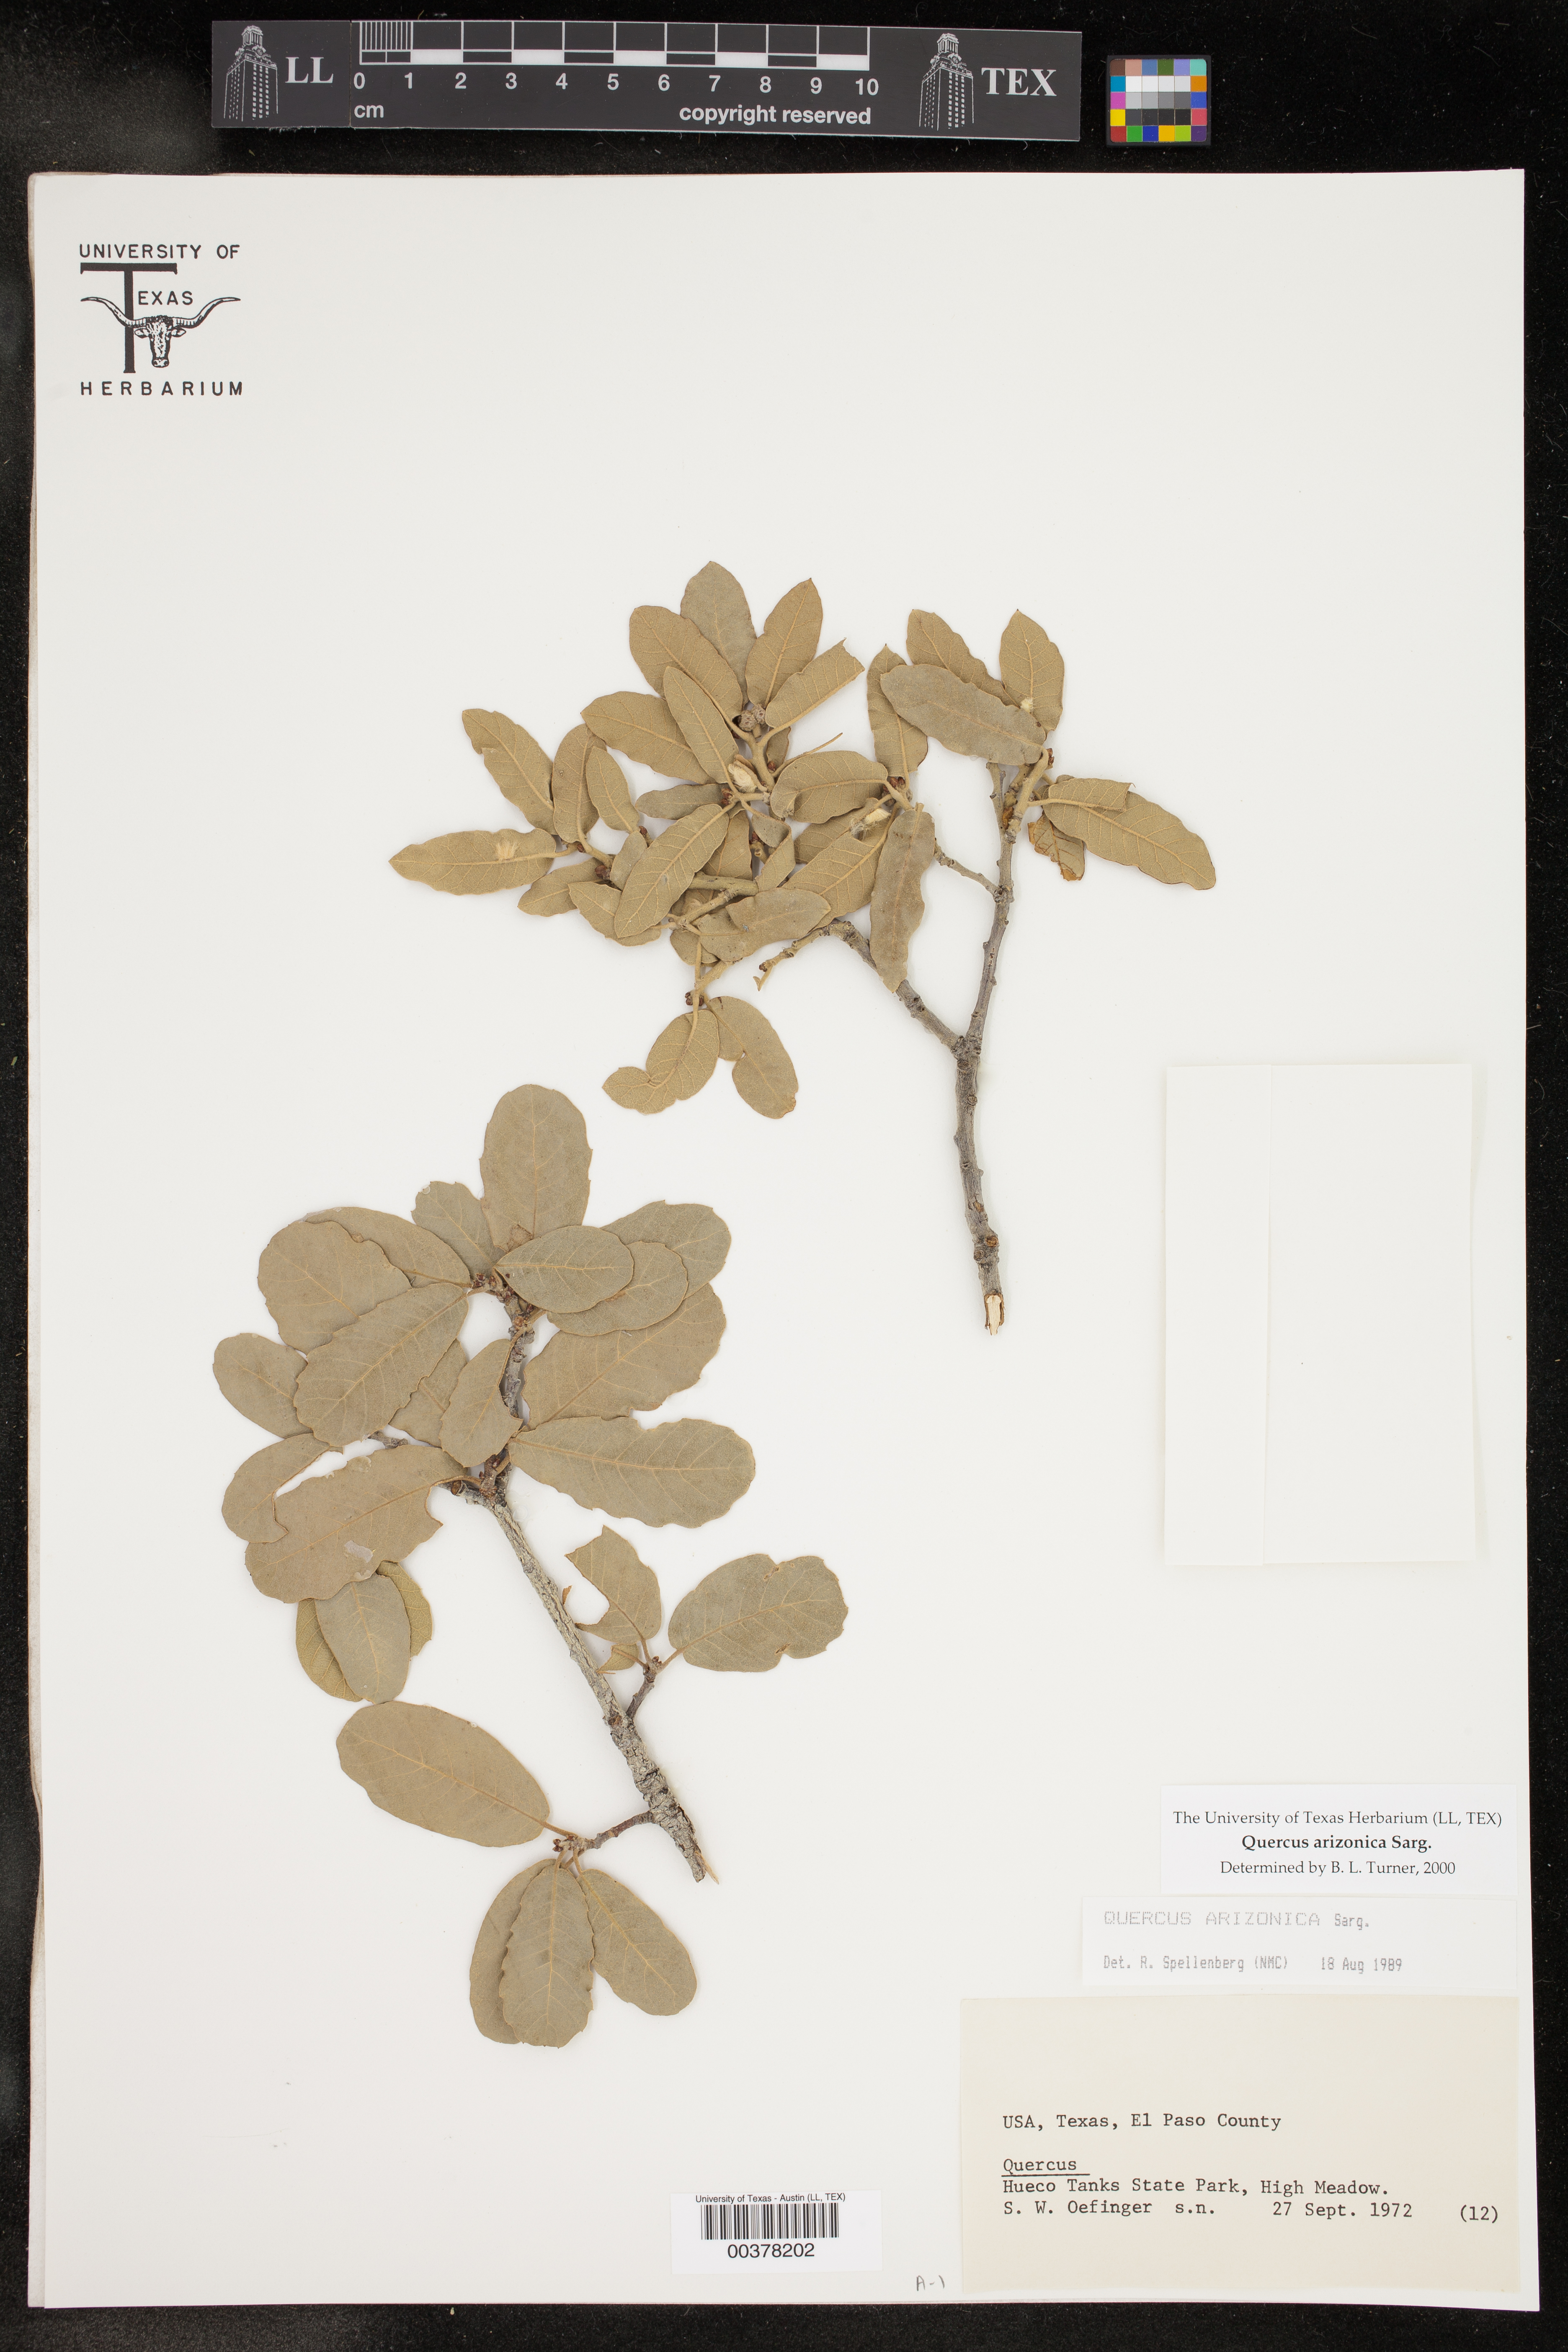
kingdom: Plantae
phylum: Tracheophyta
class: Magnoliopsida
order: Fagales
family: Fagaceae
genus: Quercus
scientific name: Quercus arizonica
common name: Arizona white oak
